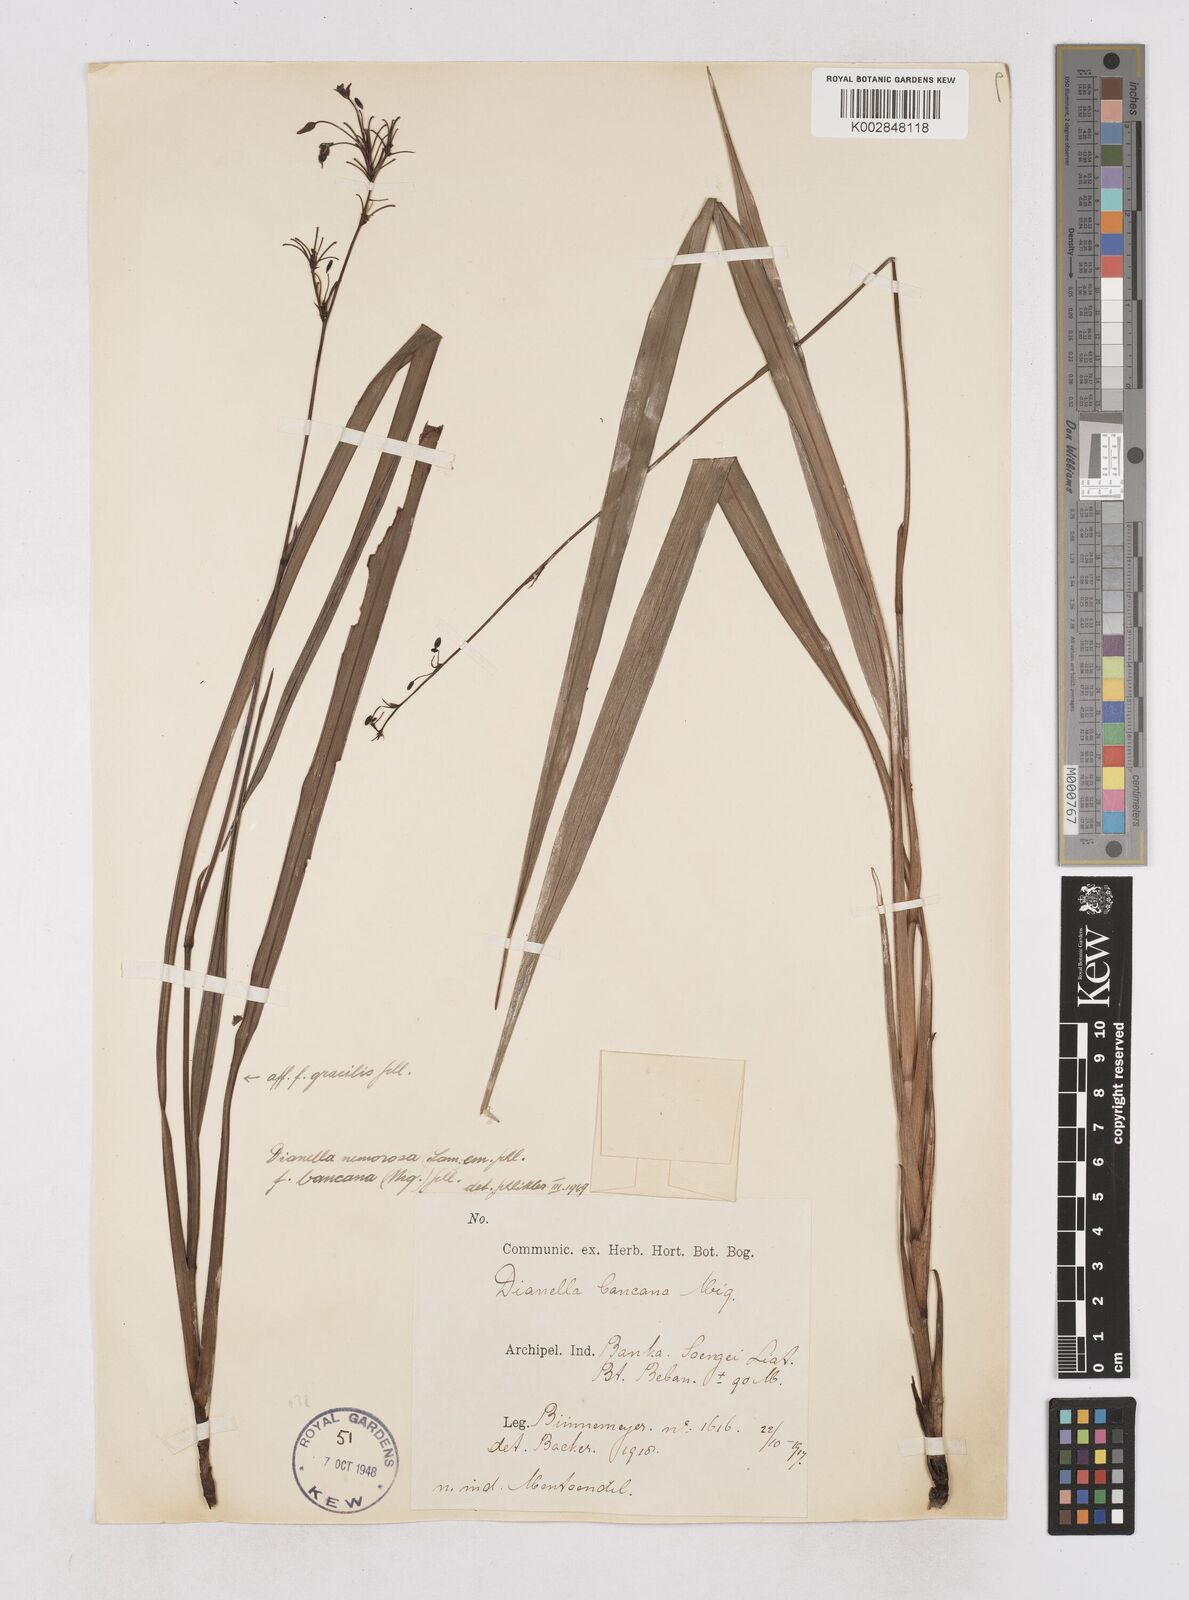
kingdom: Plantae
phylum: Tracheophyta
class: Liliopsida
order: Asparagales
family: Asphodelaceae
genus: Dianella
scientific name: Dianella ensifolia
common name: New zealand lilyplant
